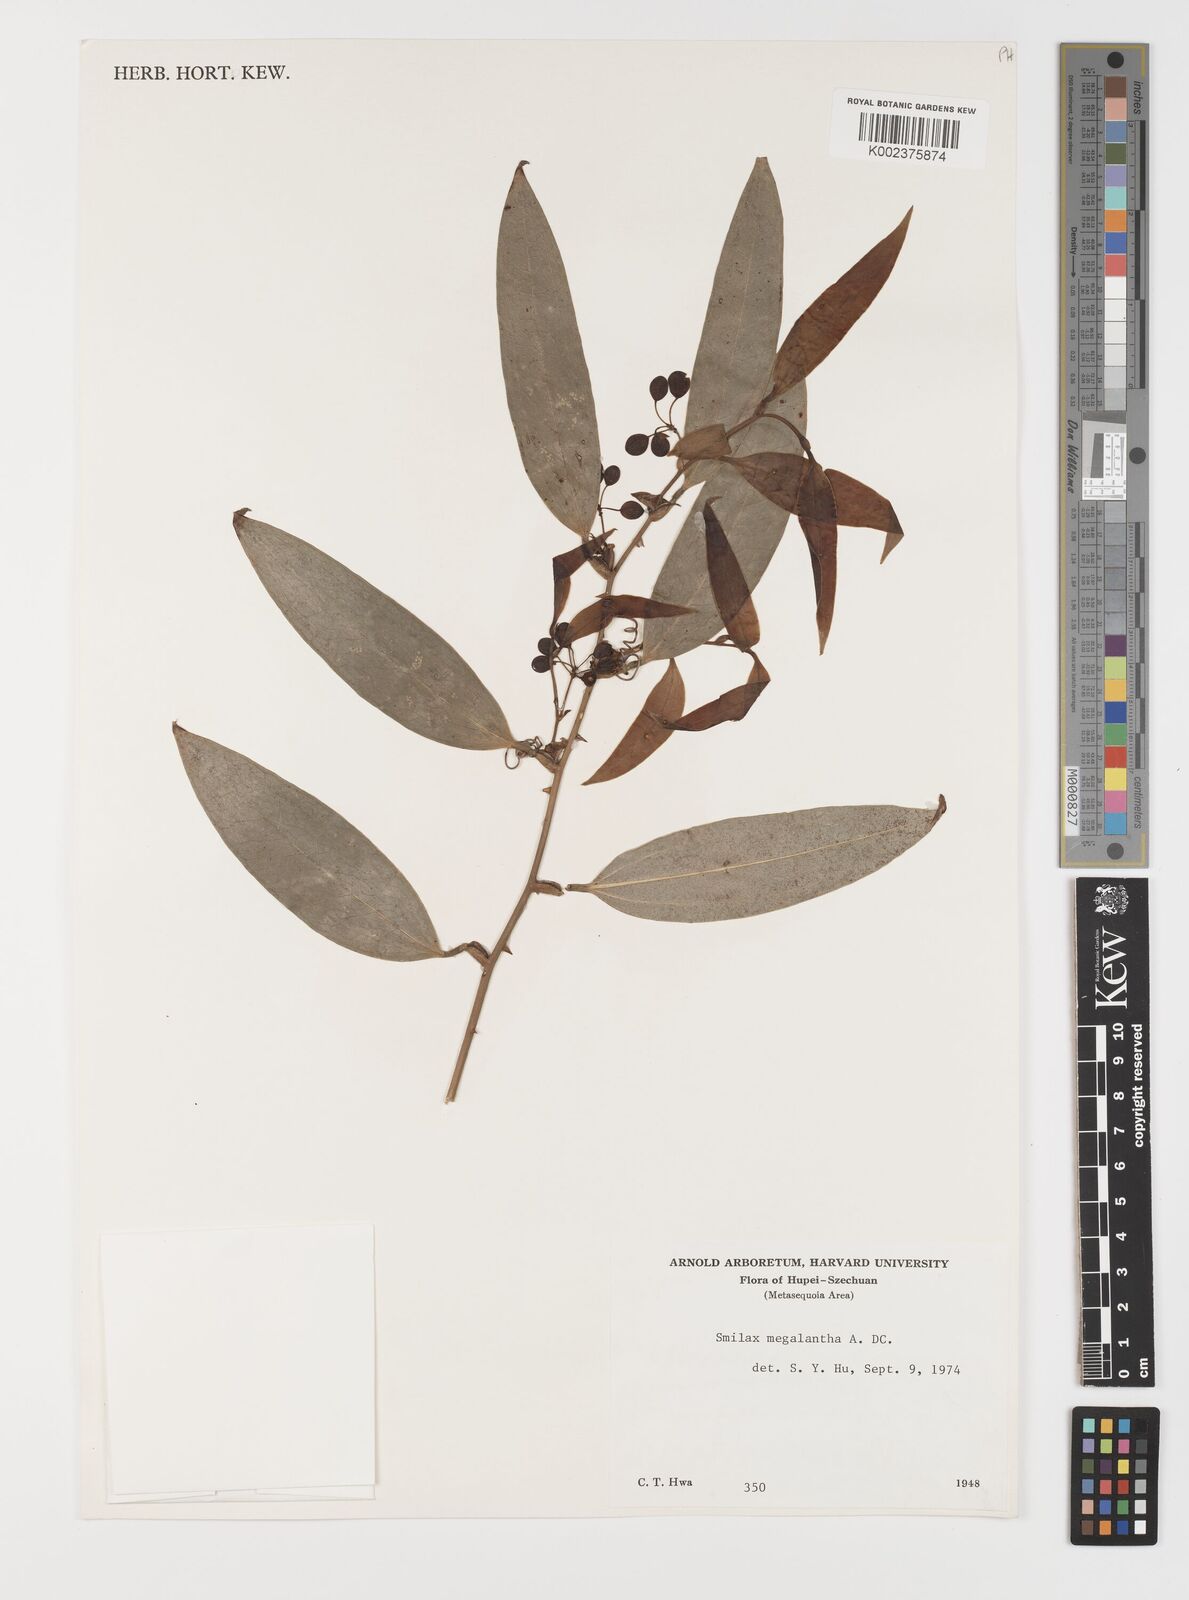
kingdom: Plantae
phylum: Tracheophyta
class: Liliopsida
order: Liliales
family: Smilacaceae
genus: Smilax
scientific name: Smilax megalantha
